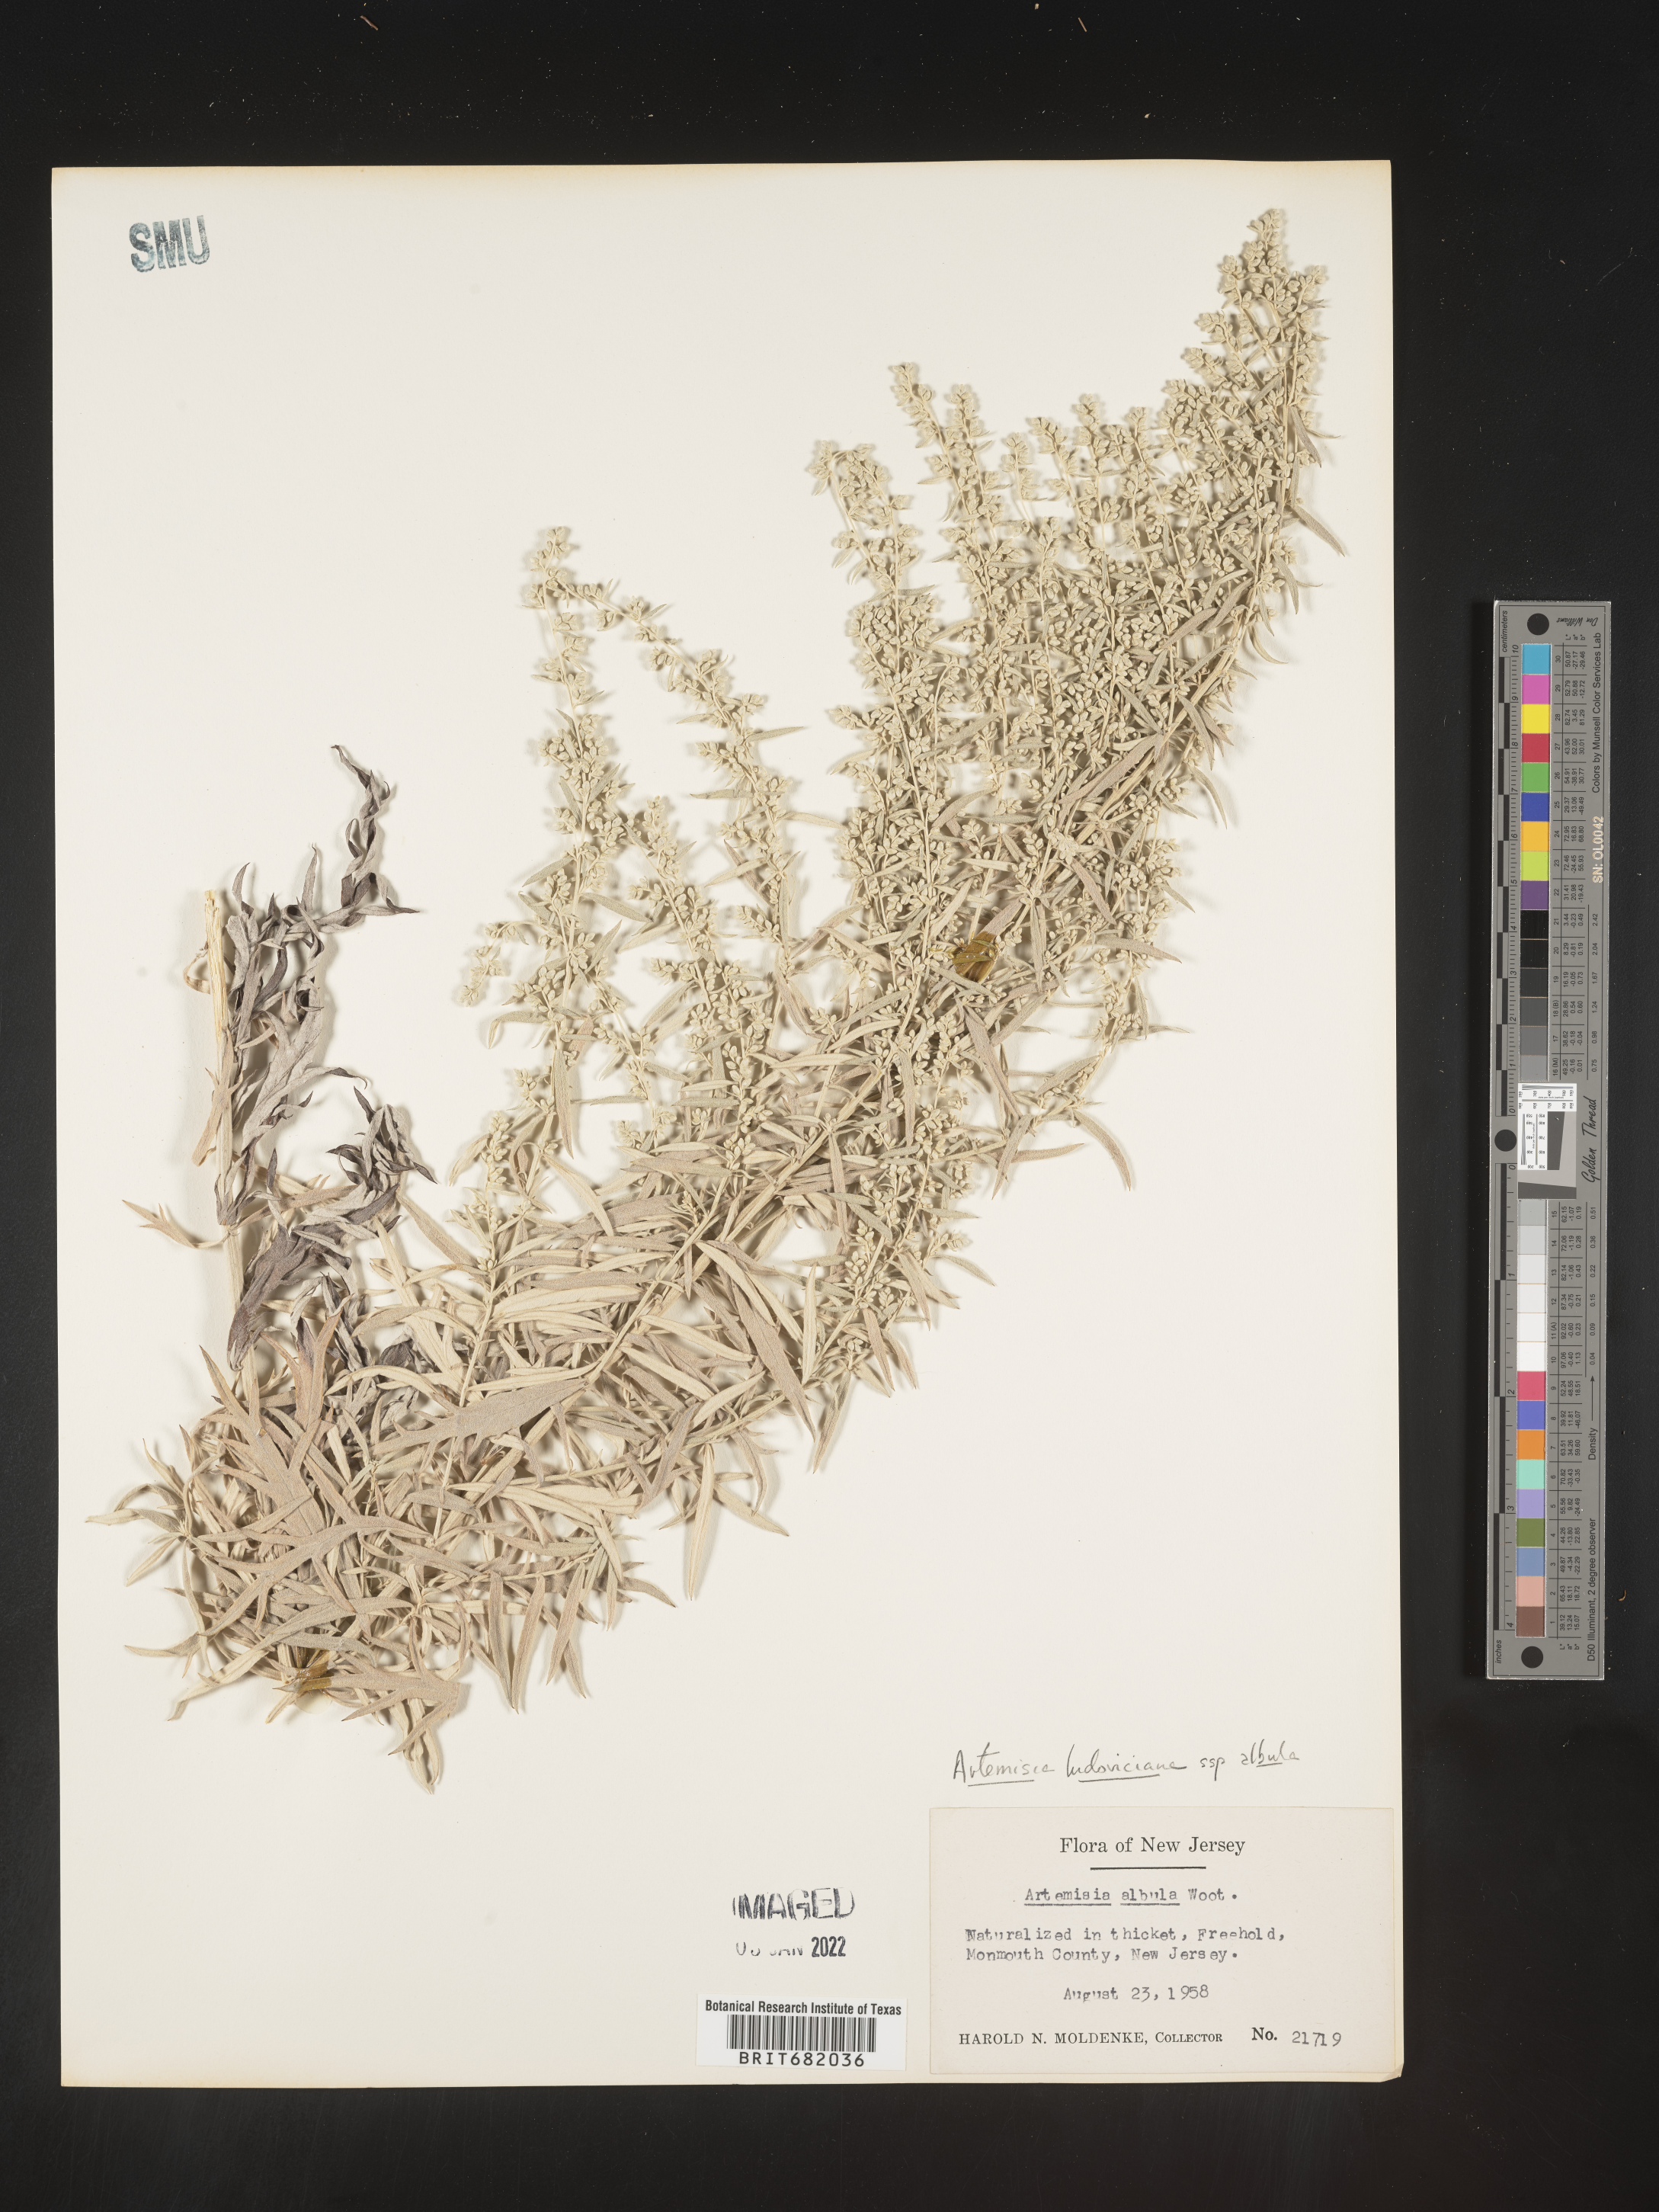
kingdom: Plantae
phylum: Tracheophyta
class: Magnoliopsida
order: Asterales
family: Asteraceae
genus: Artemisia
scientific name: Artemisia ludoviciana
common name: Western mugwort
